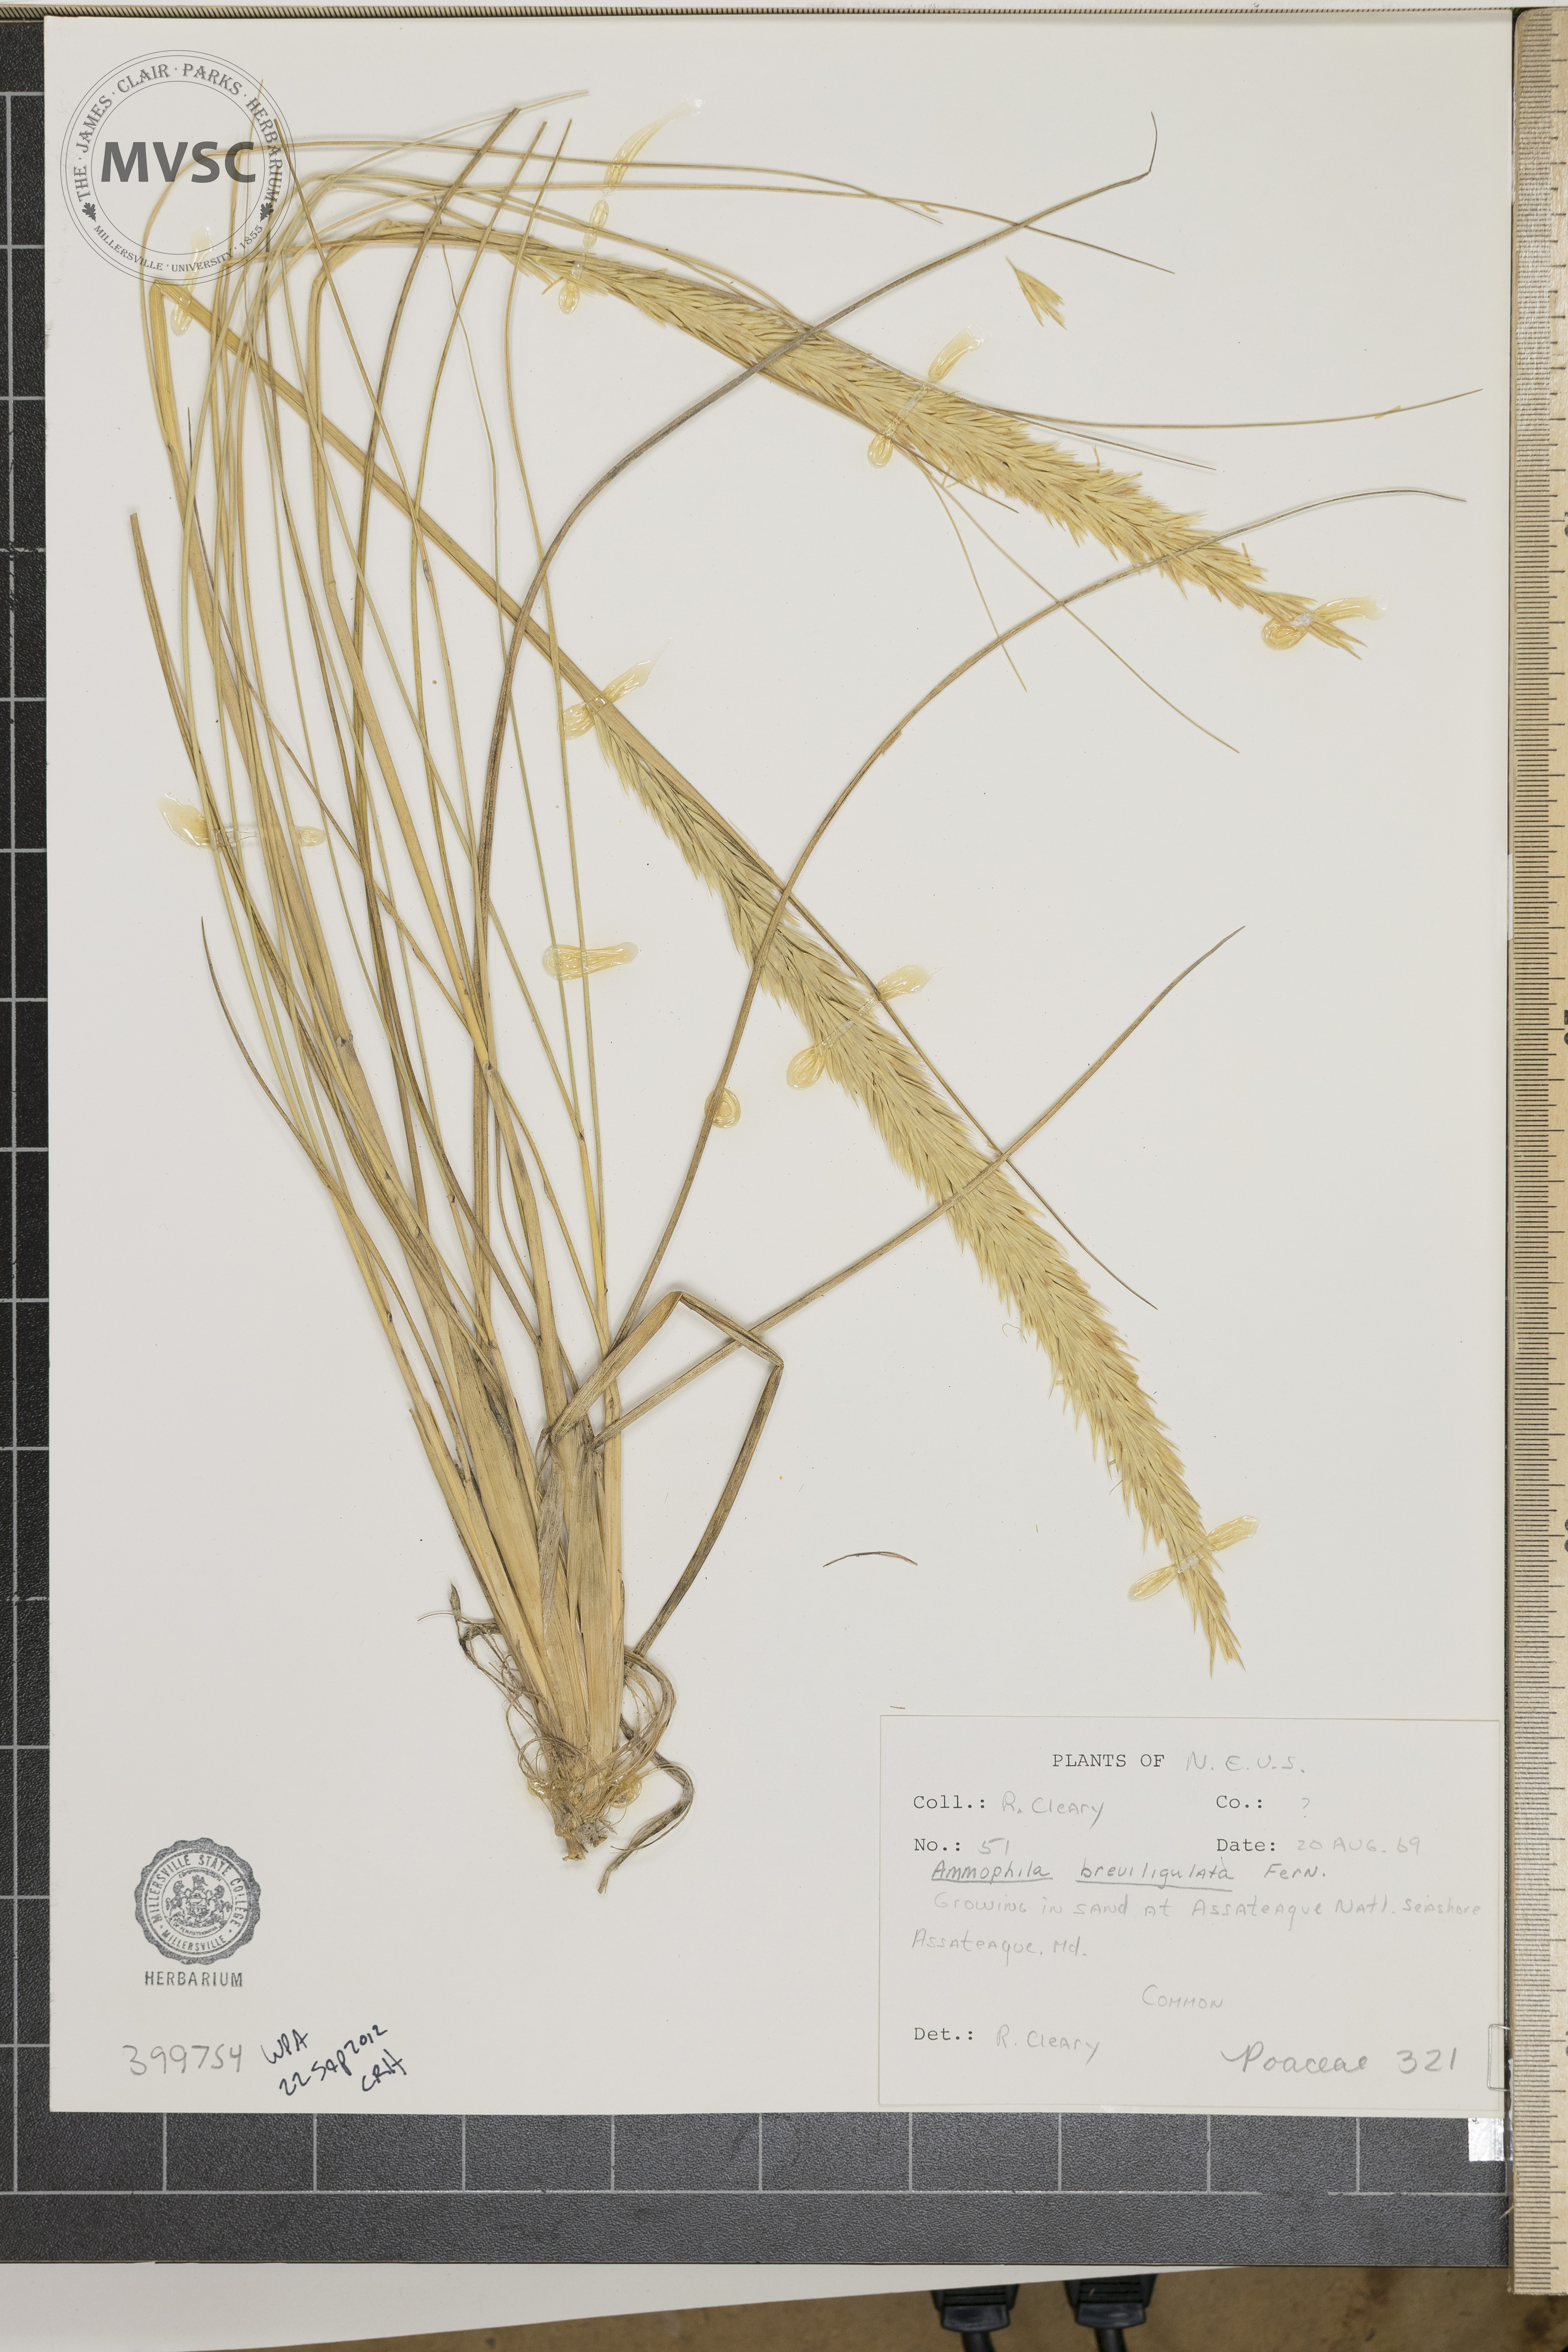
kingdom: Plantae
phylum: Tracheophyta
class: Liliopsida
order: Poales
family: Poaceae
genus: Calamagrostis
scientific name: Calamagrostis breviligulata
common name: beachgrass
